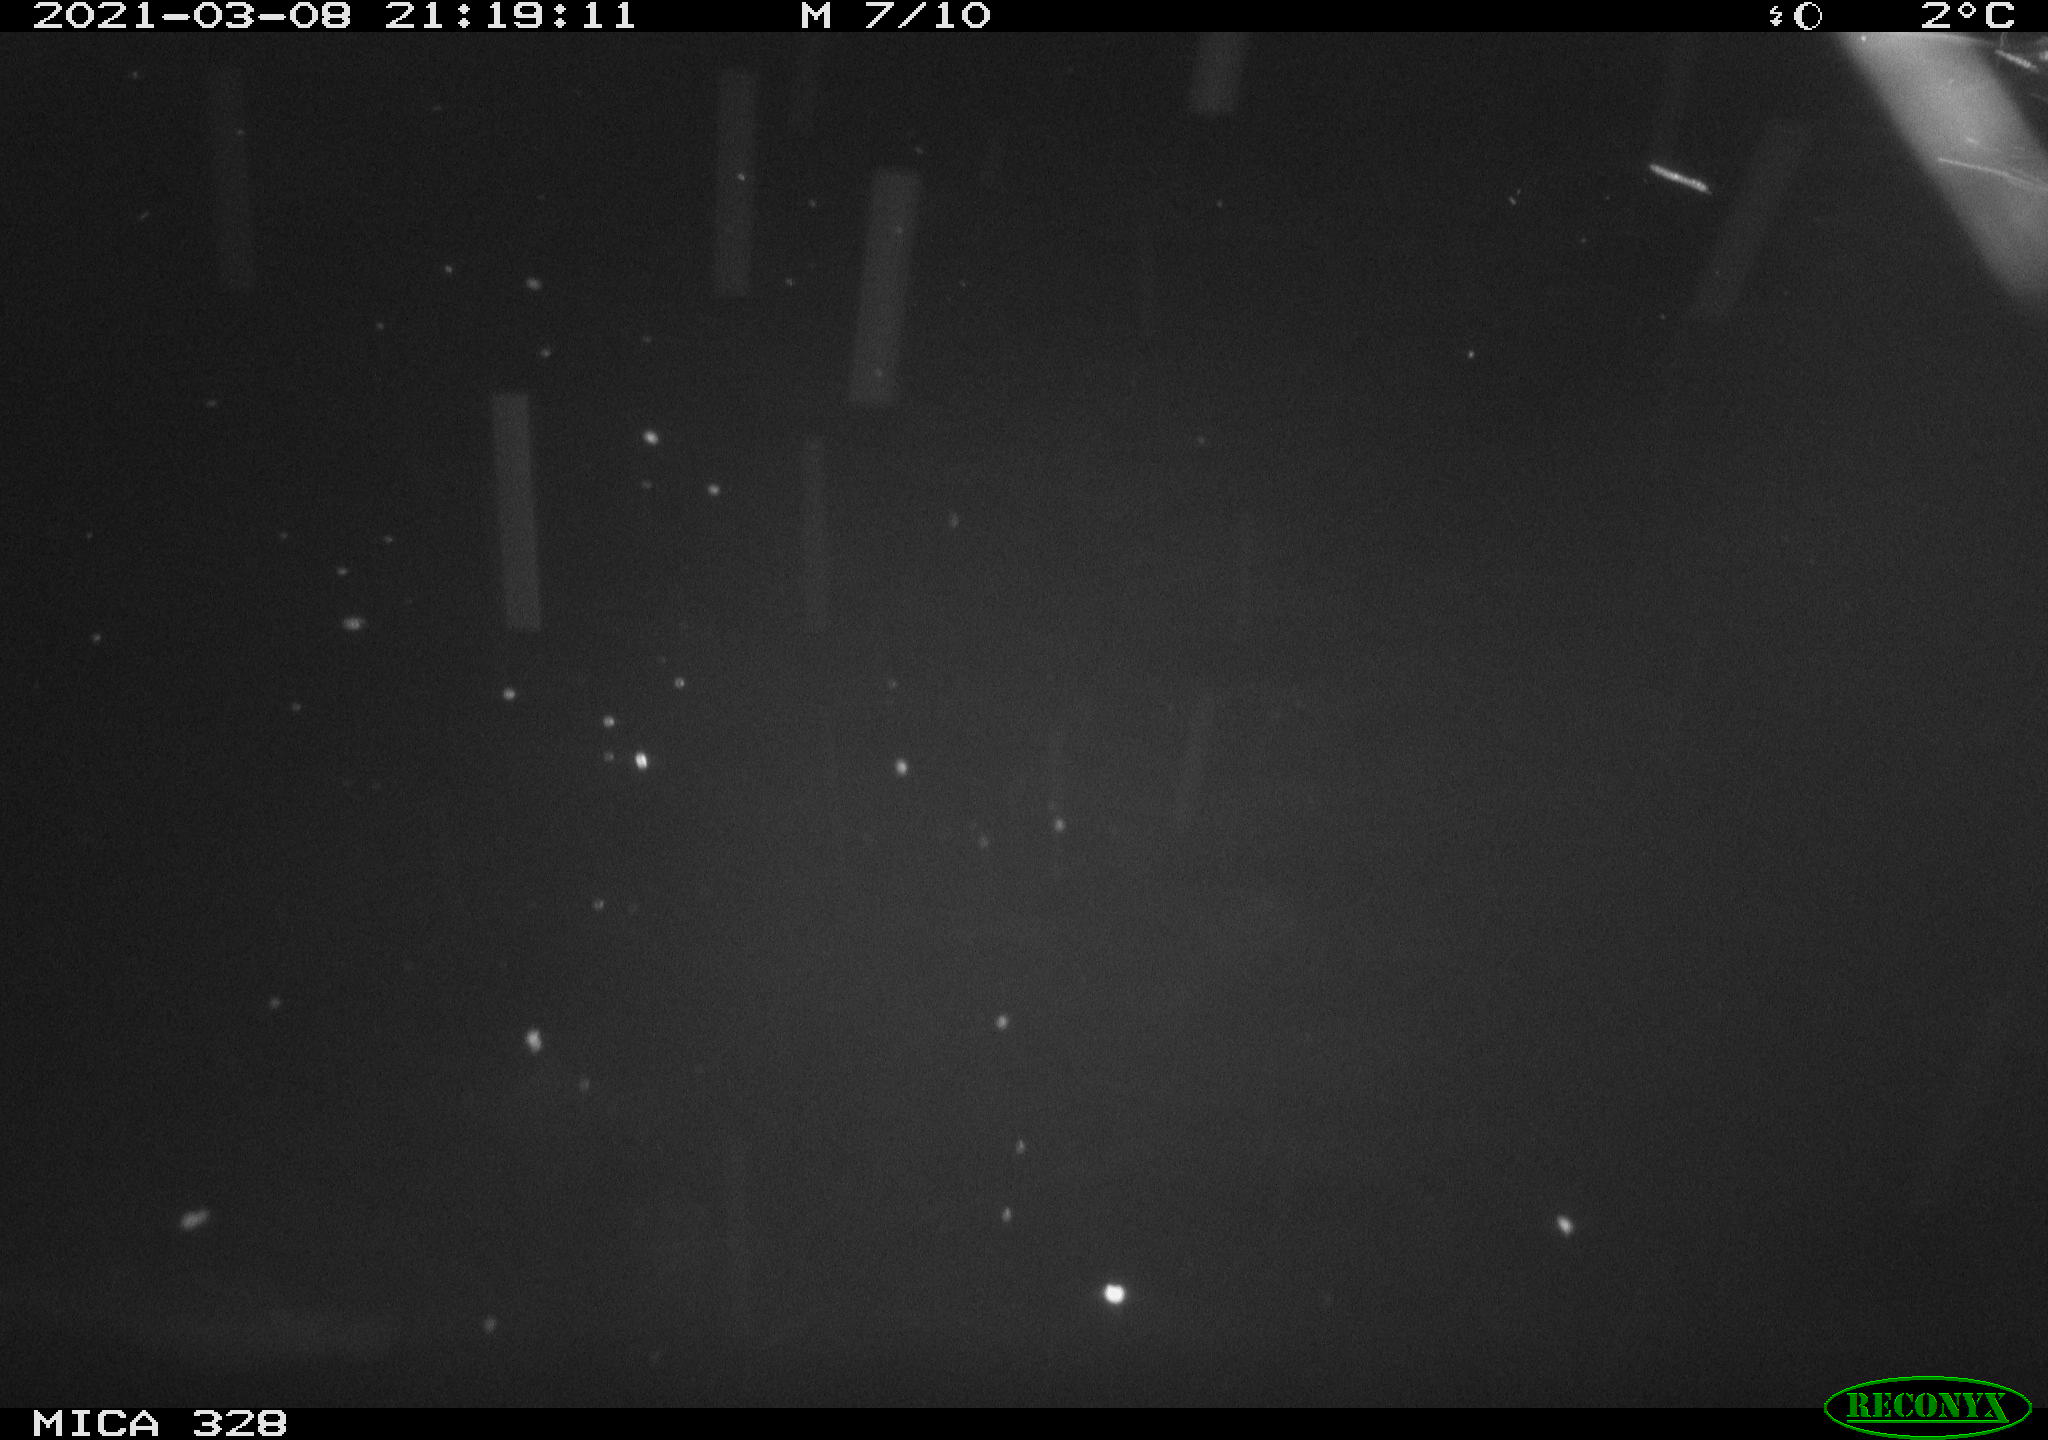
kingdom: Animalia
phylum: Chordata
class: Mammalia
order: Rodentia
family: Cricetidae
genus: Ondatra
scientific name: Ondatra zibethicus
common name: Muskrat
